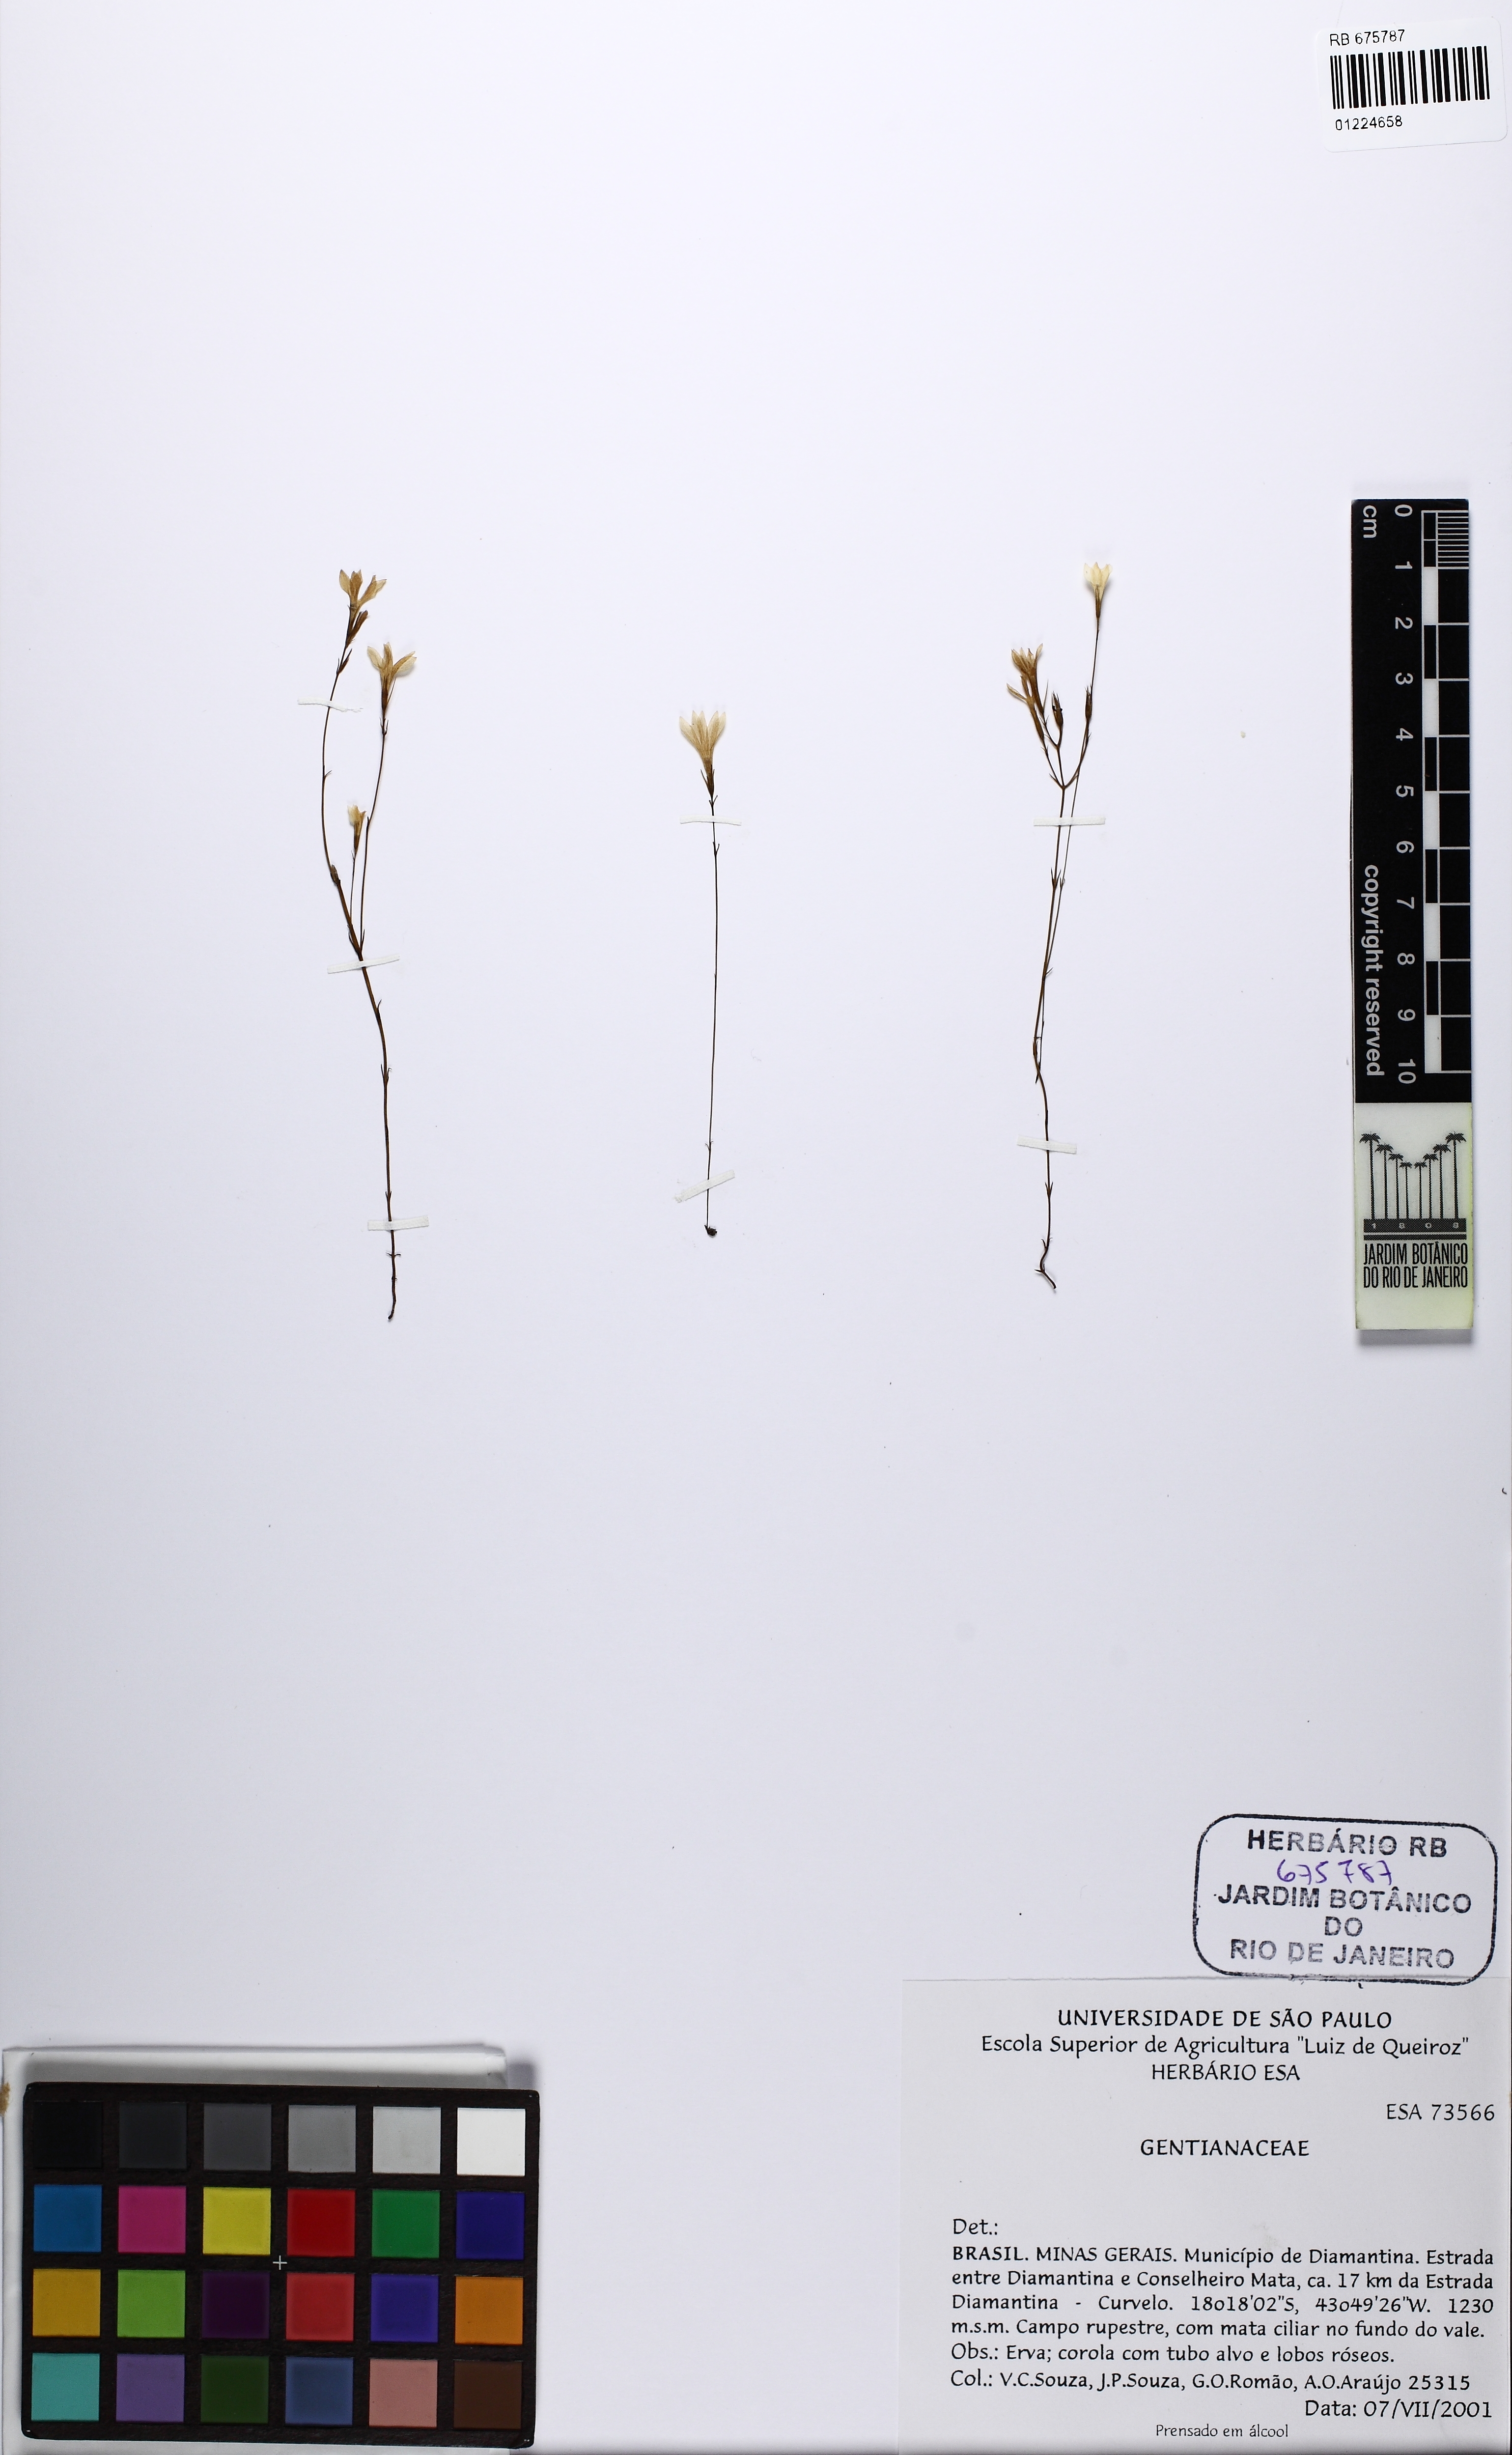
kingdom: Plantae
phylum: Tracheophyta
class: Magnoliopsida
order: Gentianales
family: Gentianaceae
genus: Curtia
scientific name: Curtia
